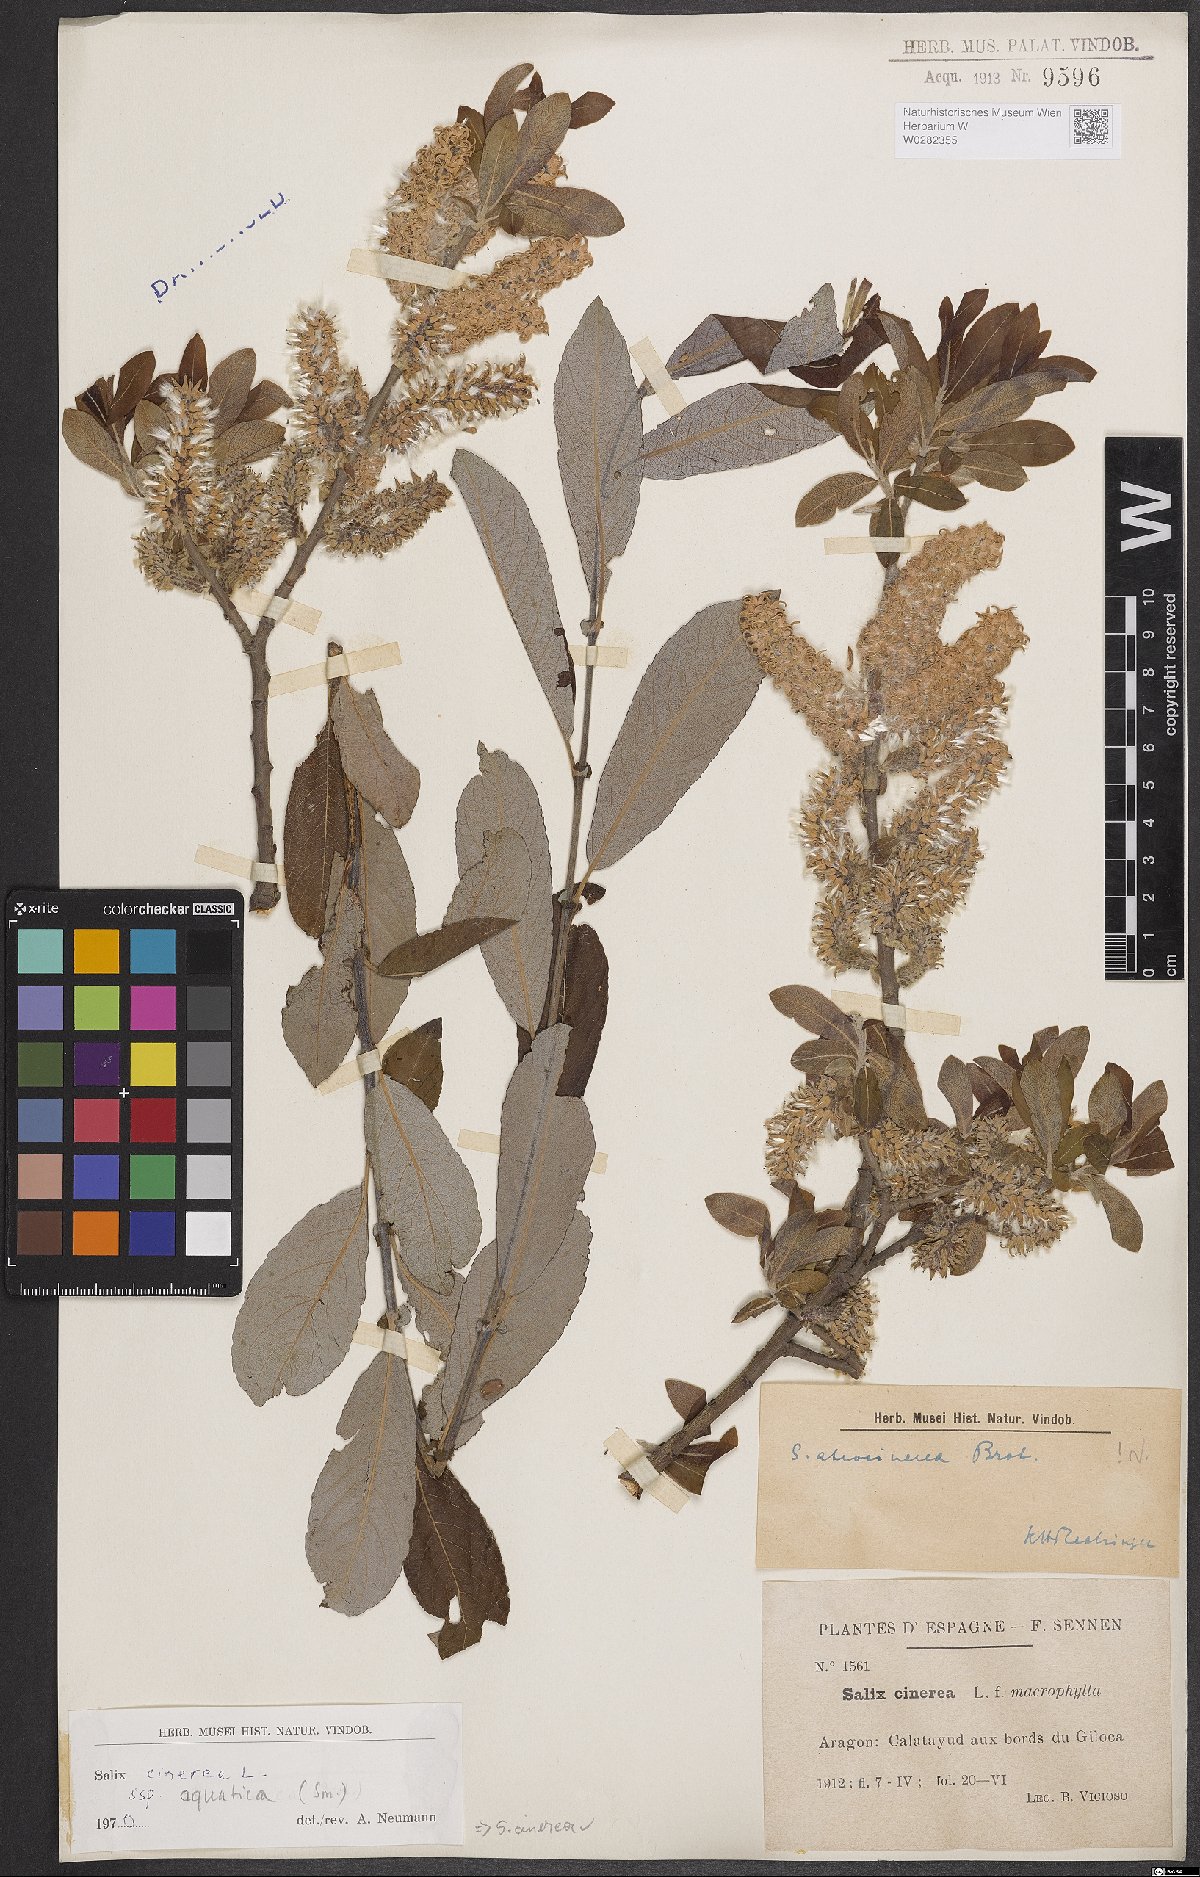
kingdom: Plantae
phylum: Tracheophyta
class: Magnoliopsida
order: Malpighiales
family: Salicaceae
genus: Salix
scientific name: Salix cinerea
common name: Common sallow
